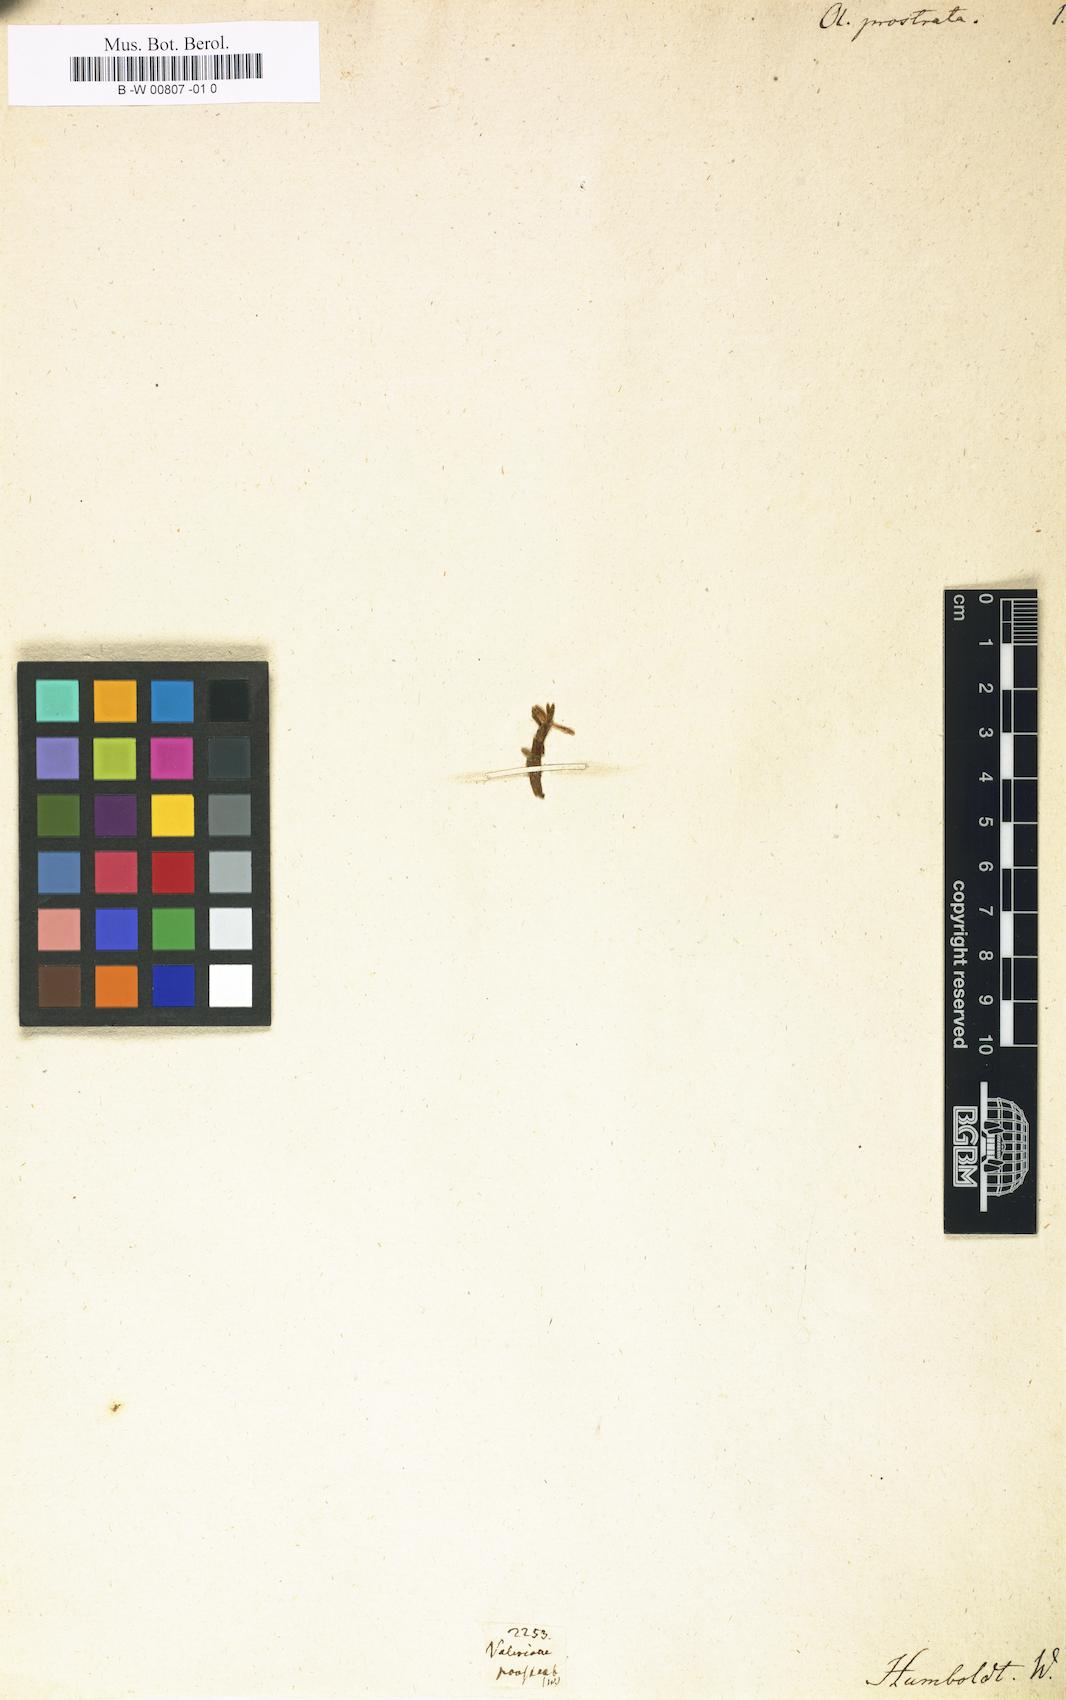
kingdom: Plantae
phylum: Tracheophyta
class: Magnoliopsida
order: Dipsacales
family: Caprifoliaceae
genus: Valeriana
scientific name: Valeriana
